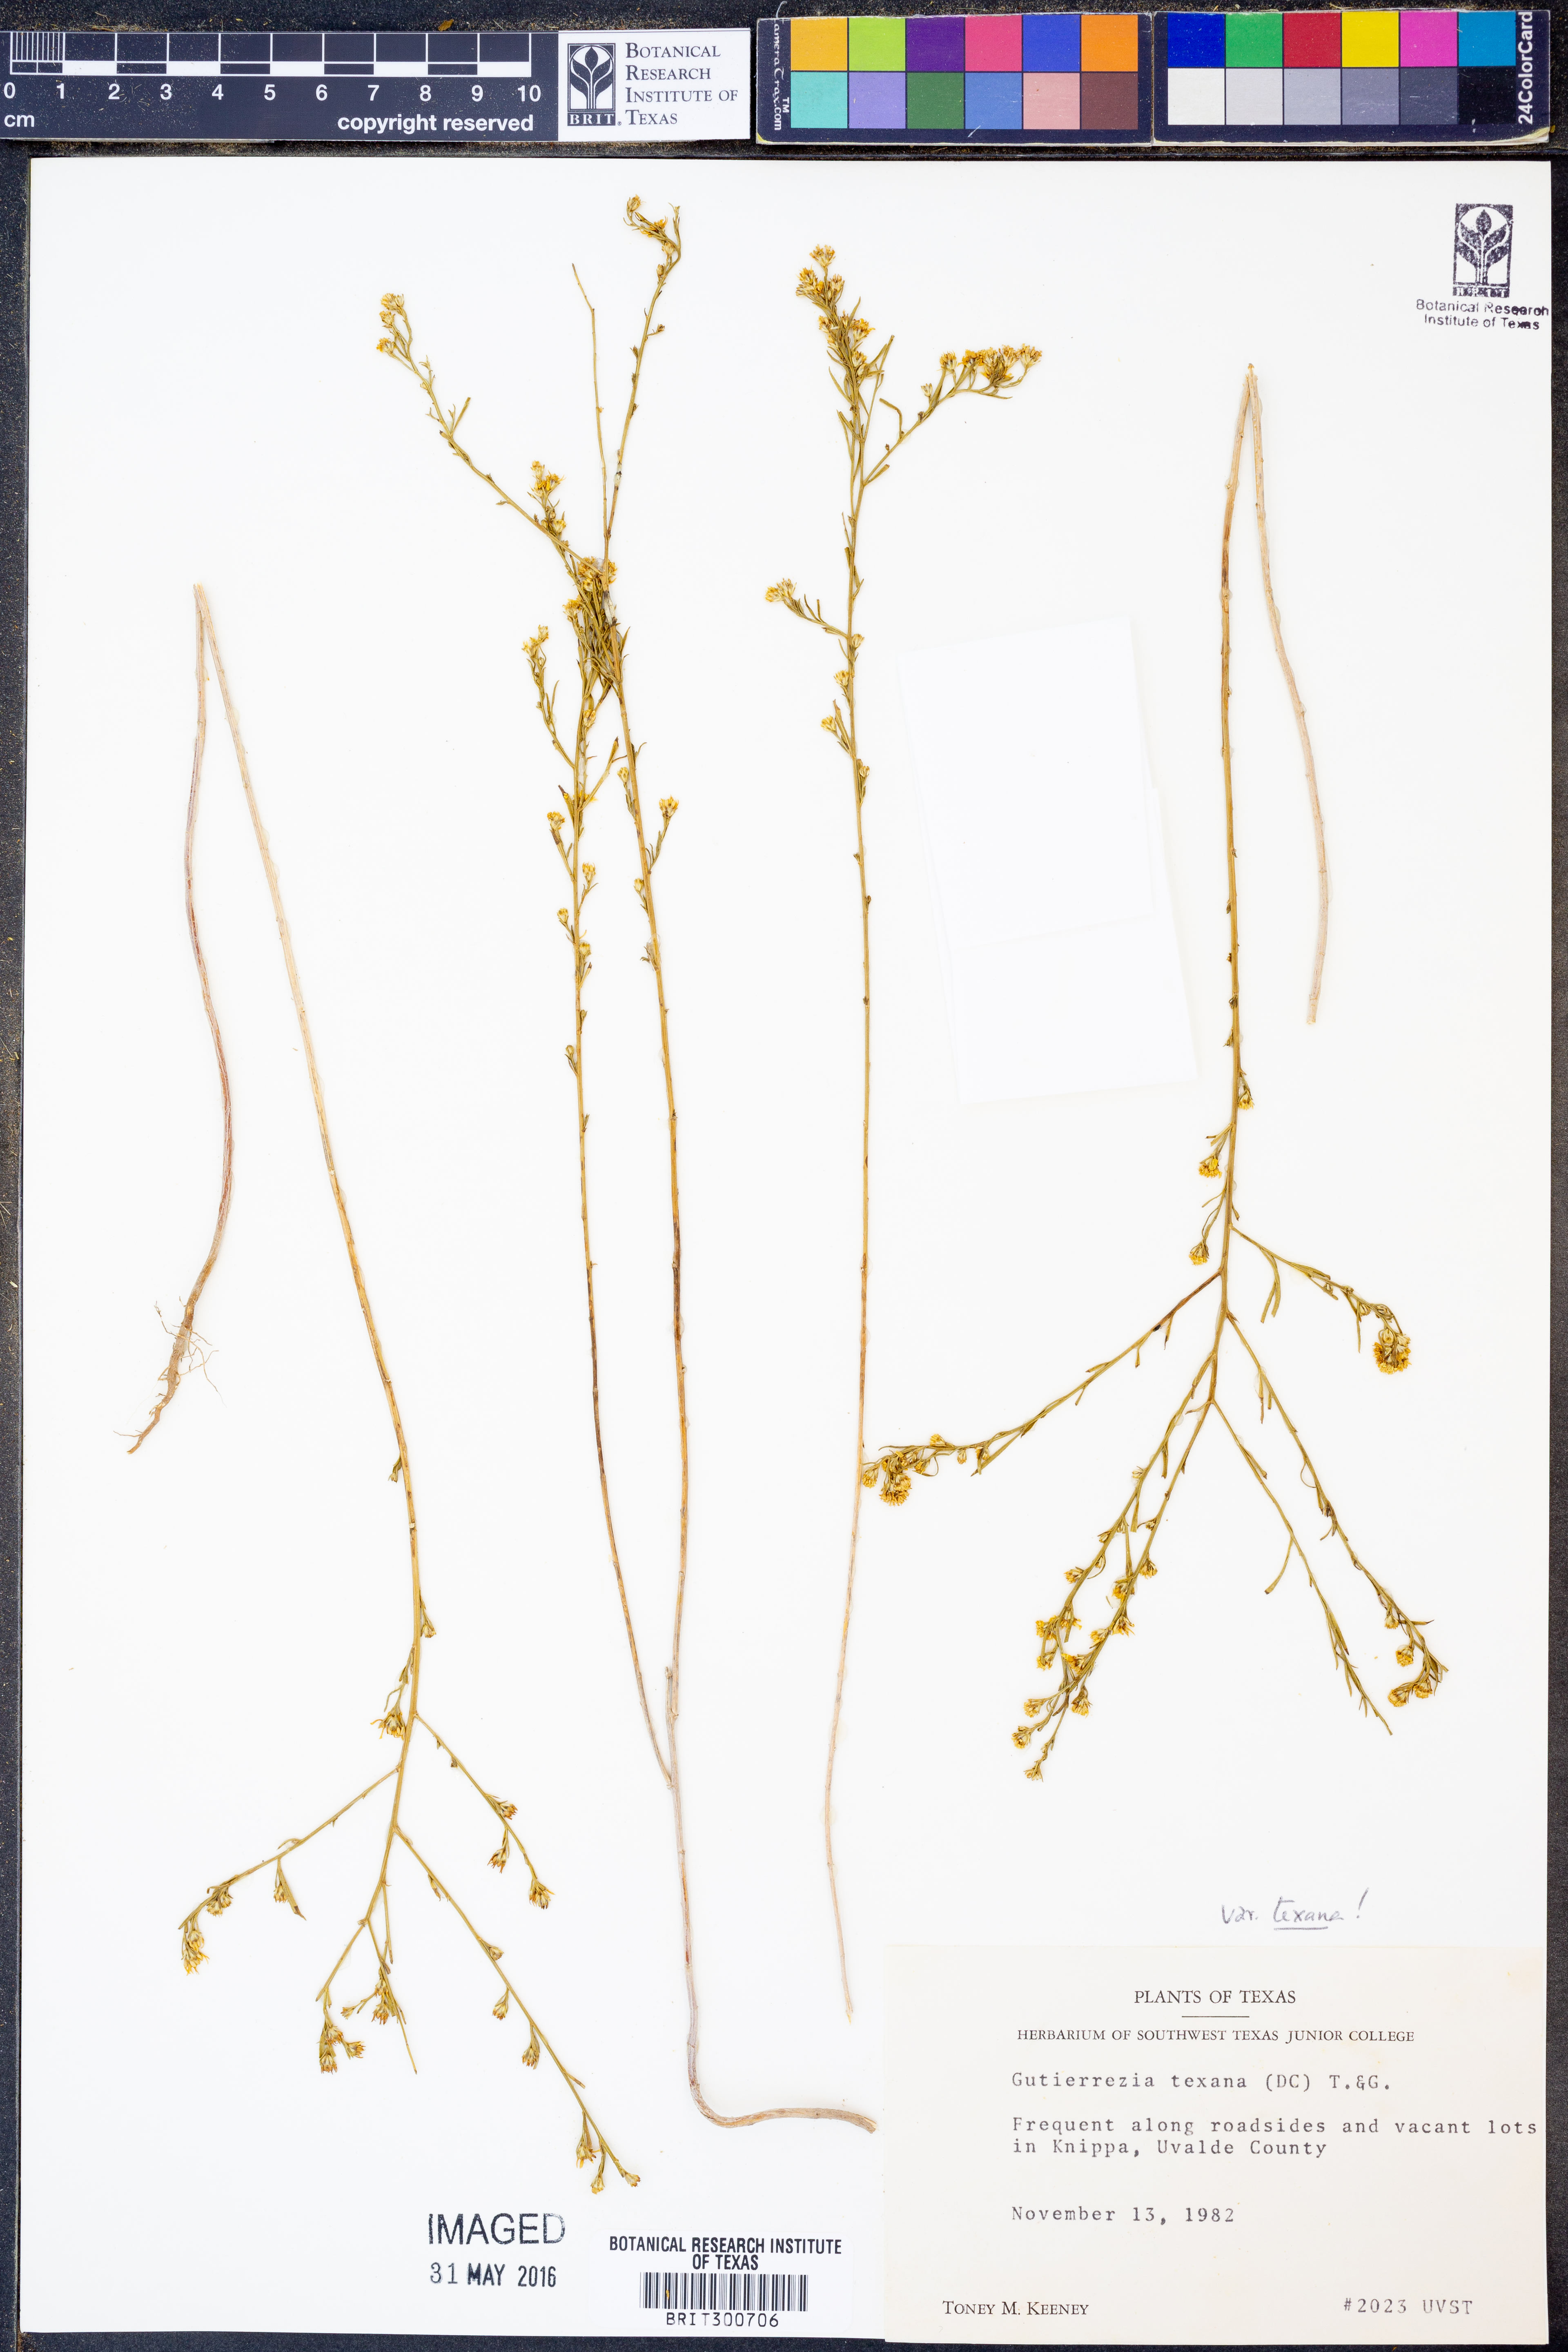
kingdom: Plantae
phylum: Tracheophyta
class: Magnoliopsida
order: Asterales
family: Asteraceae
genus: Gutierrezia
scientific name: Gutierrezia texana
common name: Texas snakeweed
